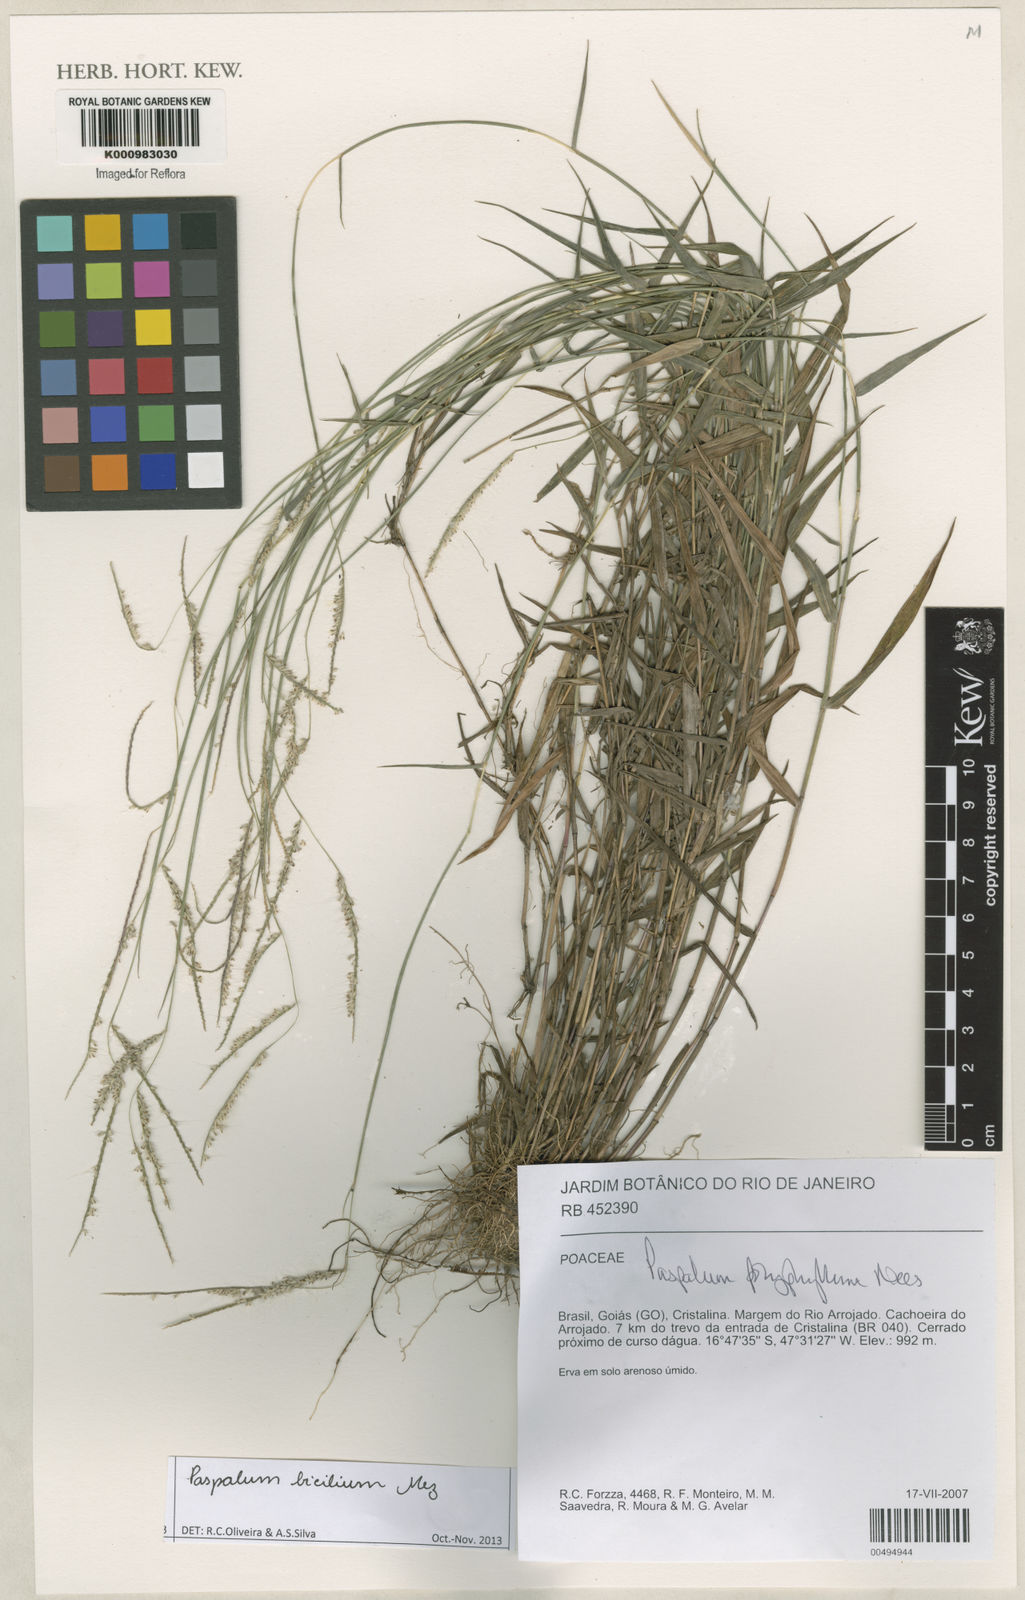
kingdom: Plantae
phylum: Tracheophyta
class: Liliopsida
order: Poales
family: Poaceae
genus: Paspalum
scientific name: Paspalum polyphyllum
